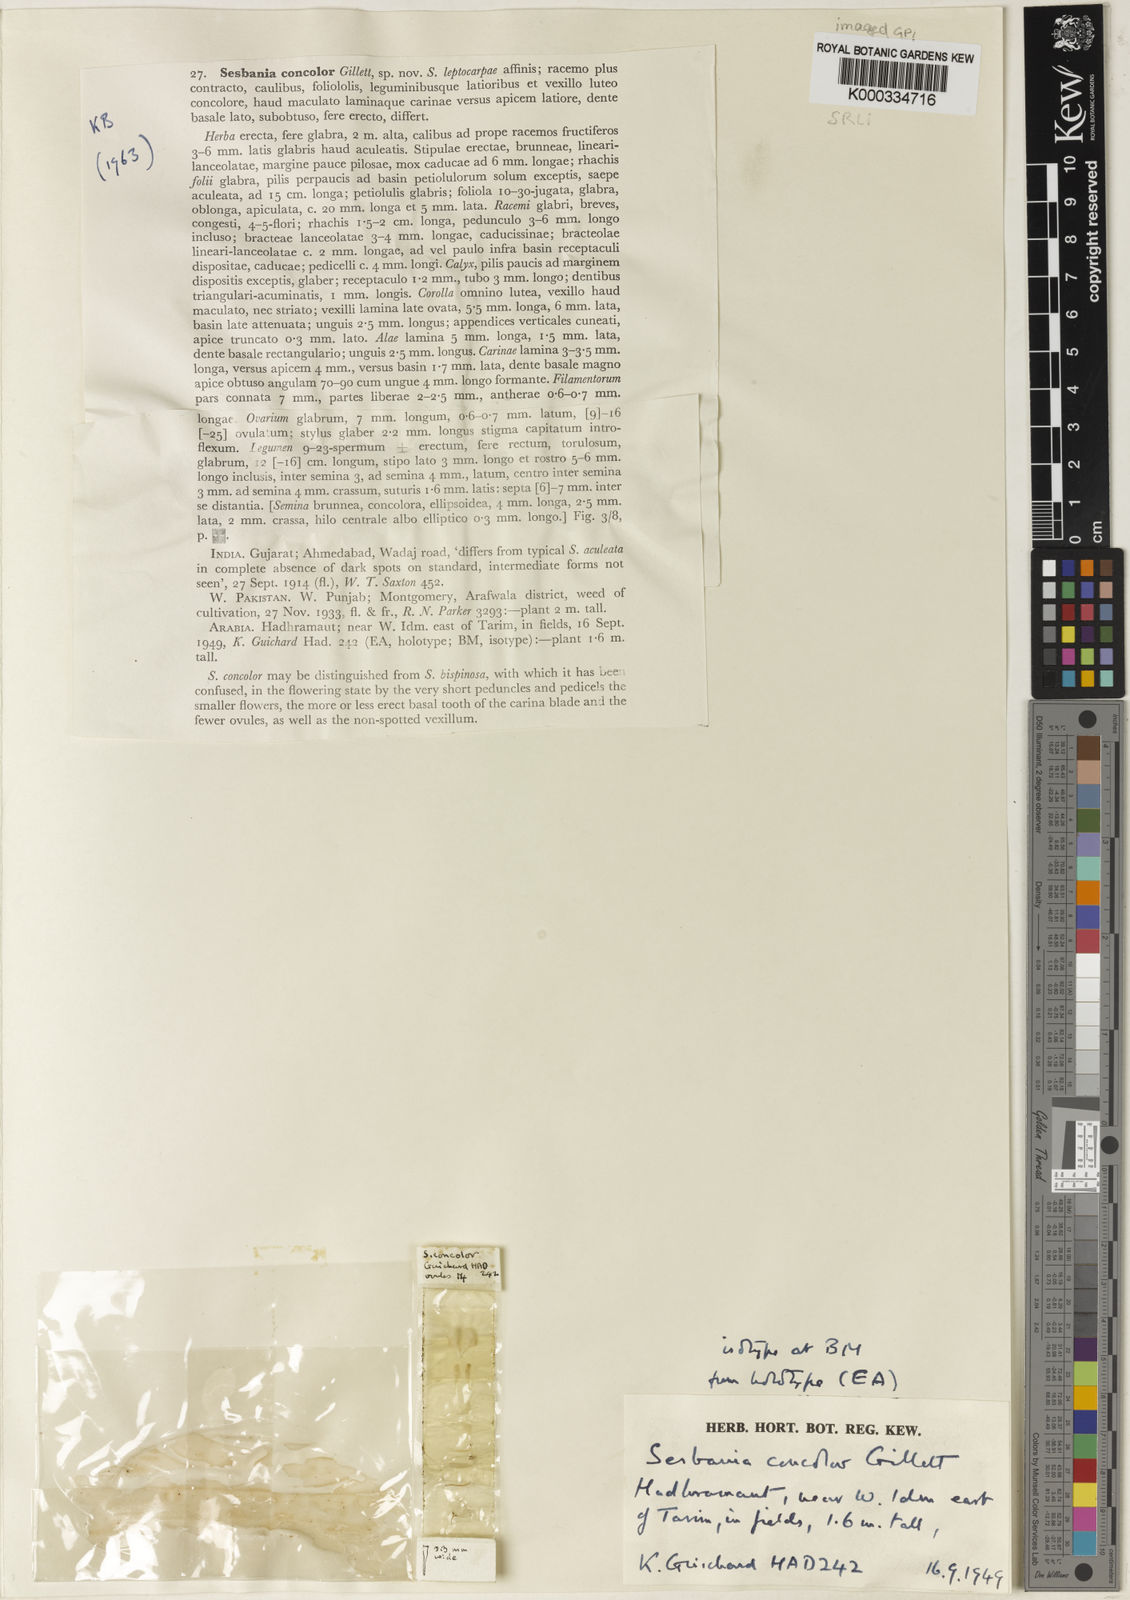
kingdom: Plantae
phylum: Tracheophyta
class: Magnoliopsida
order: Fabales
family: Fabaceae
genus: Sesbania
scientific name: Sesbania concolor
